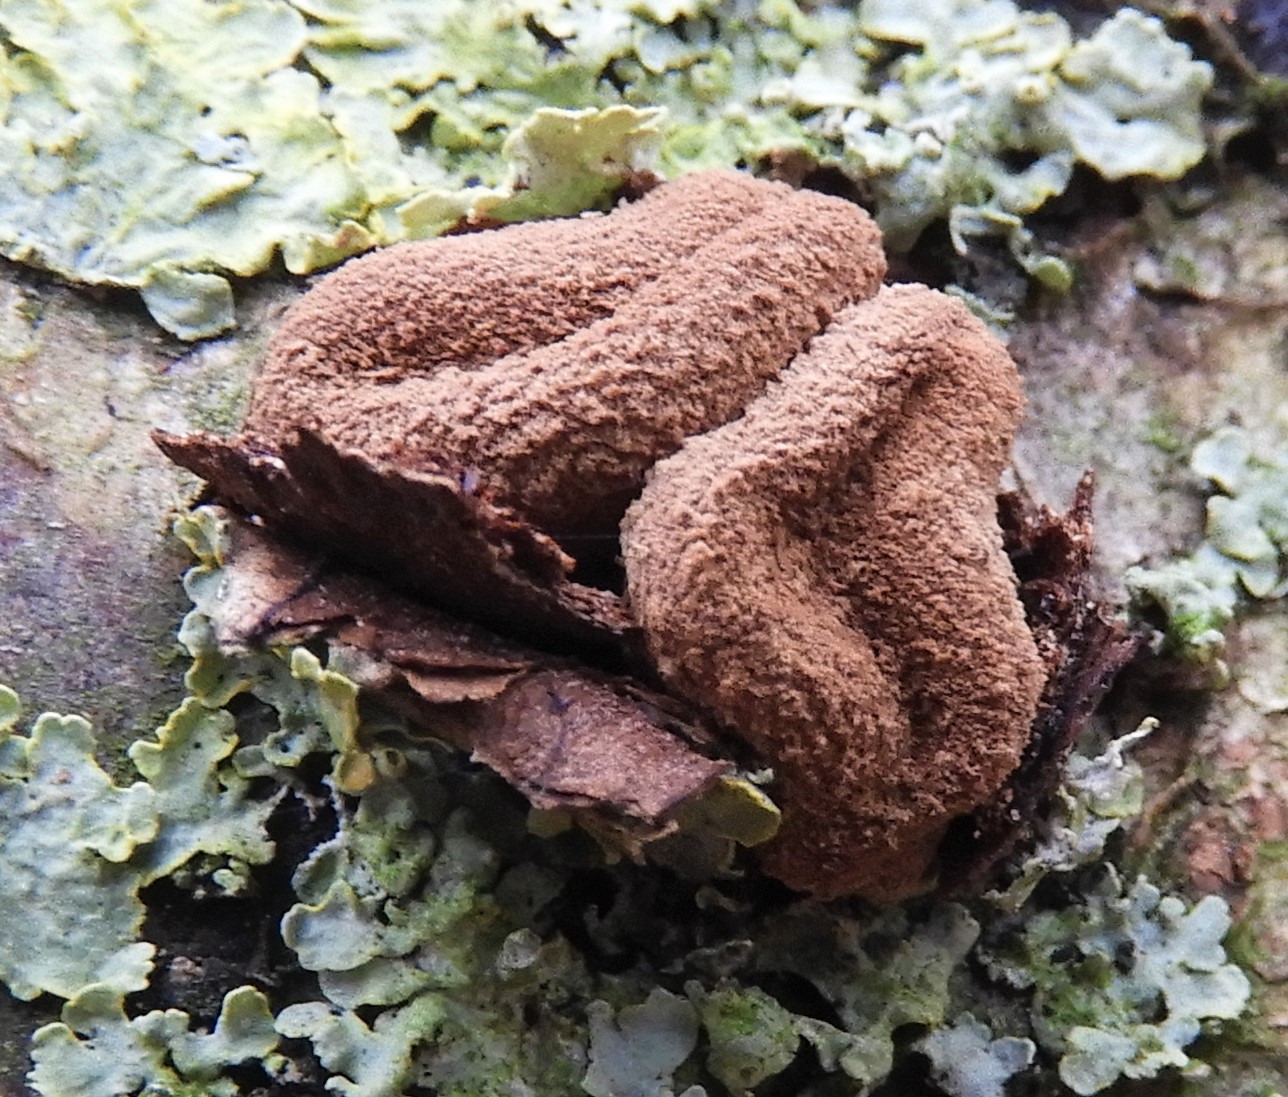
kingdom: Fungi
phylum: Ascomycota
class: Leotiomycetes
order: Helotiales
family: Cenangiaceae
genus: Encoelia
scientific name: Encoelia furfuracea
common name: hassel-læderskive
